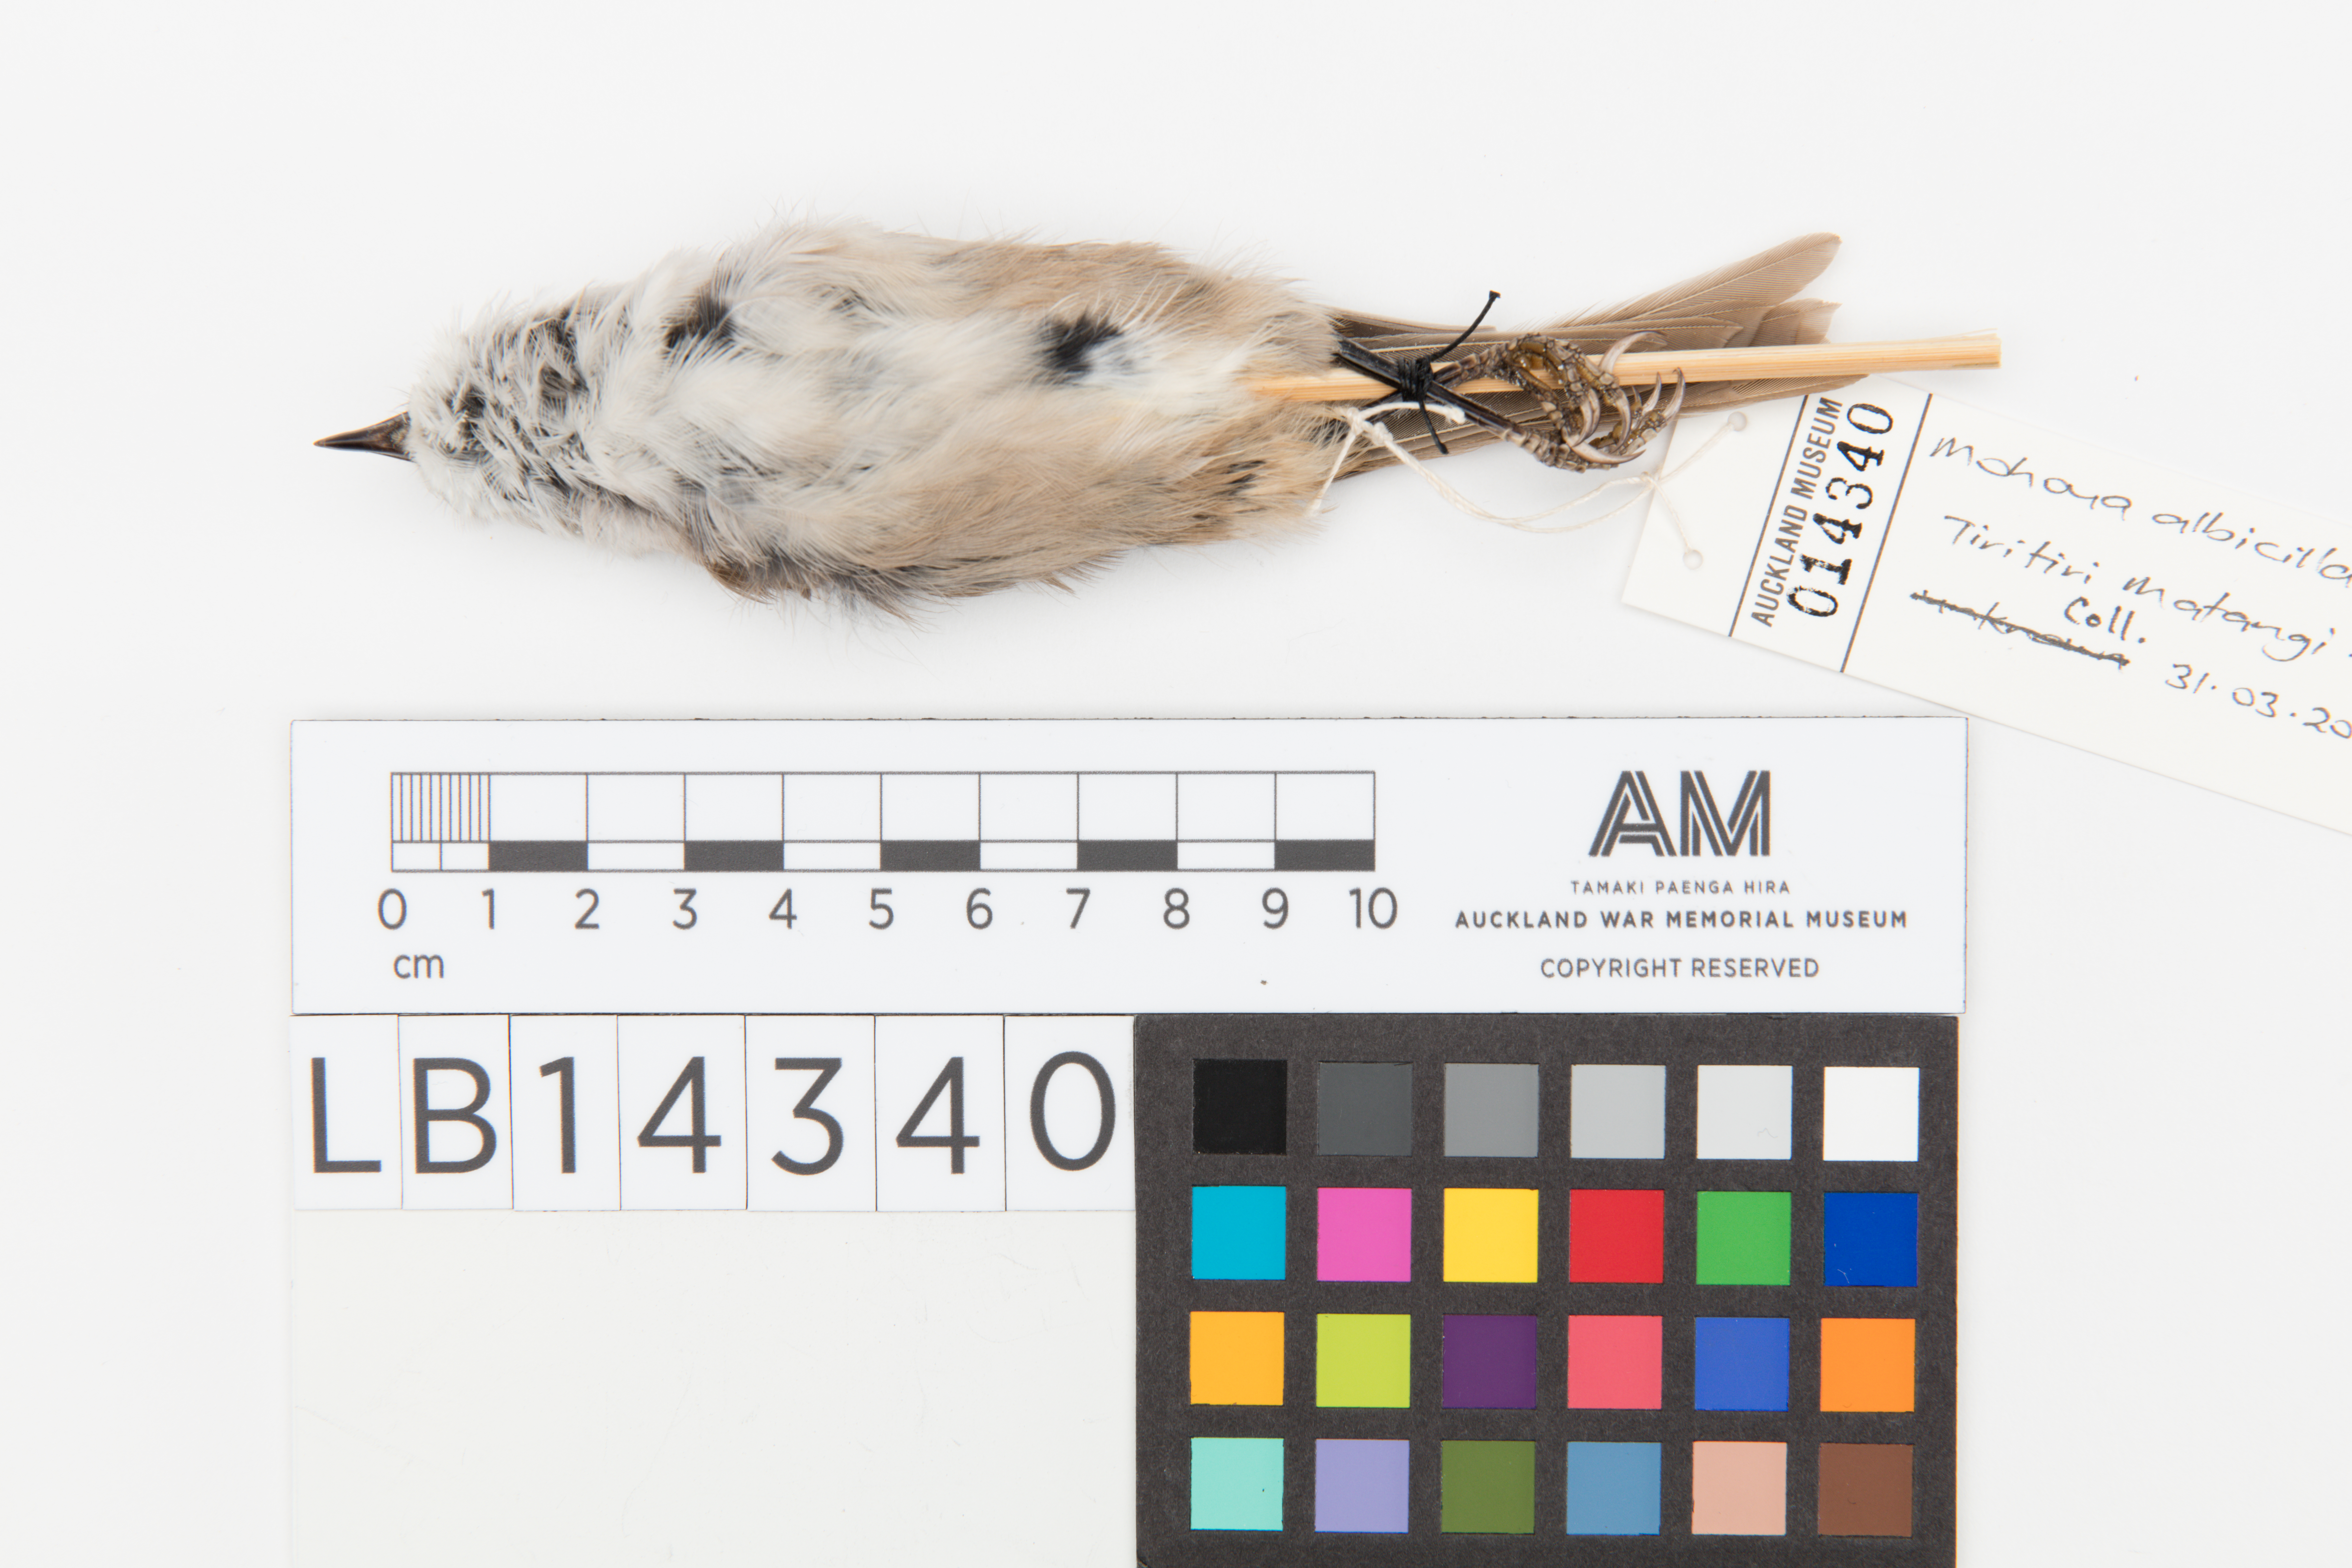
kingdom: Animalia
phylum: Chordata
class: Aves
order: Passeriformes
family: Acanthizidae
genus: Mohoua
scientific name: Mohoua albicilla
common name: Whitehead
